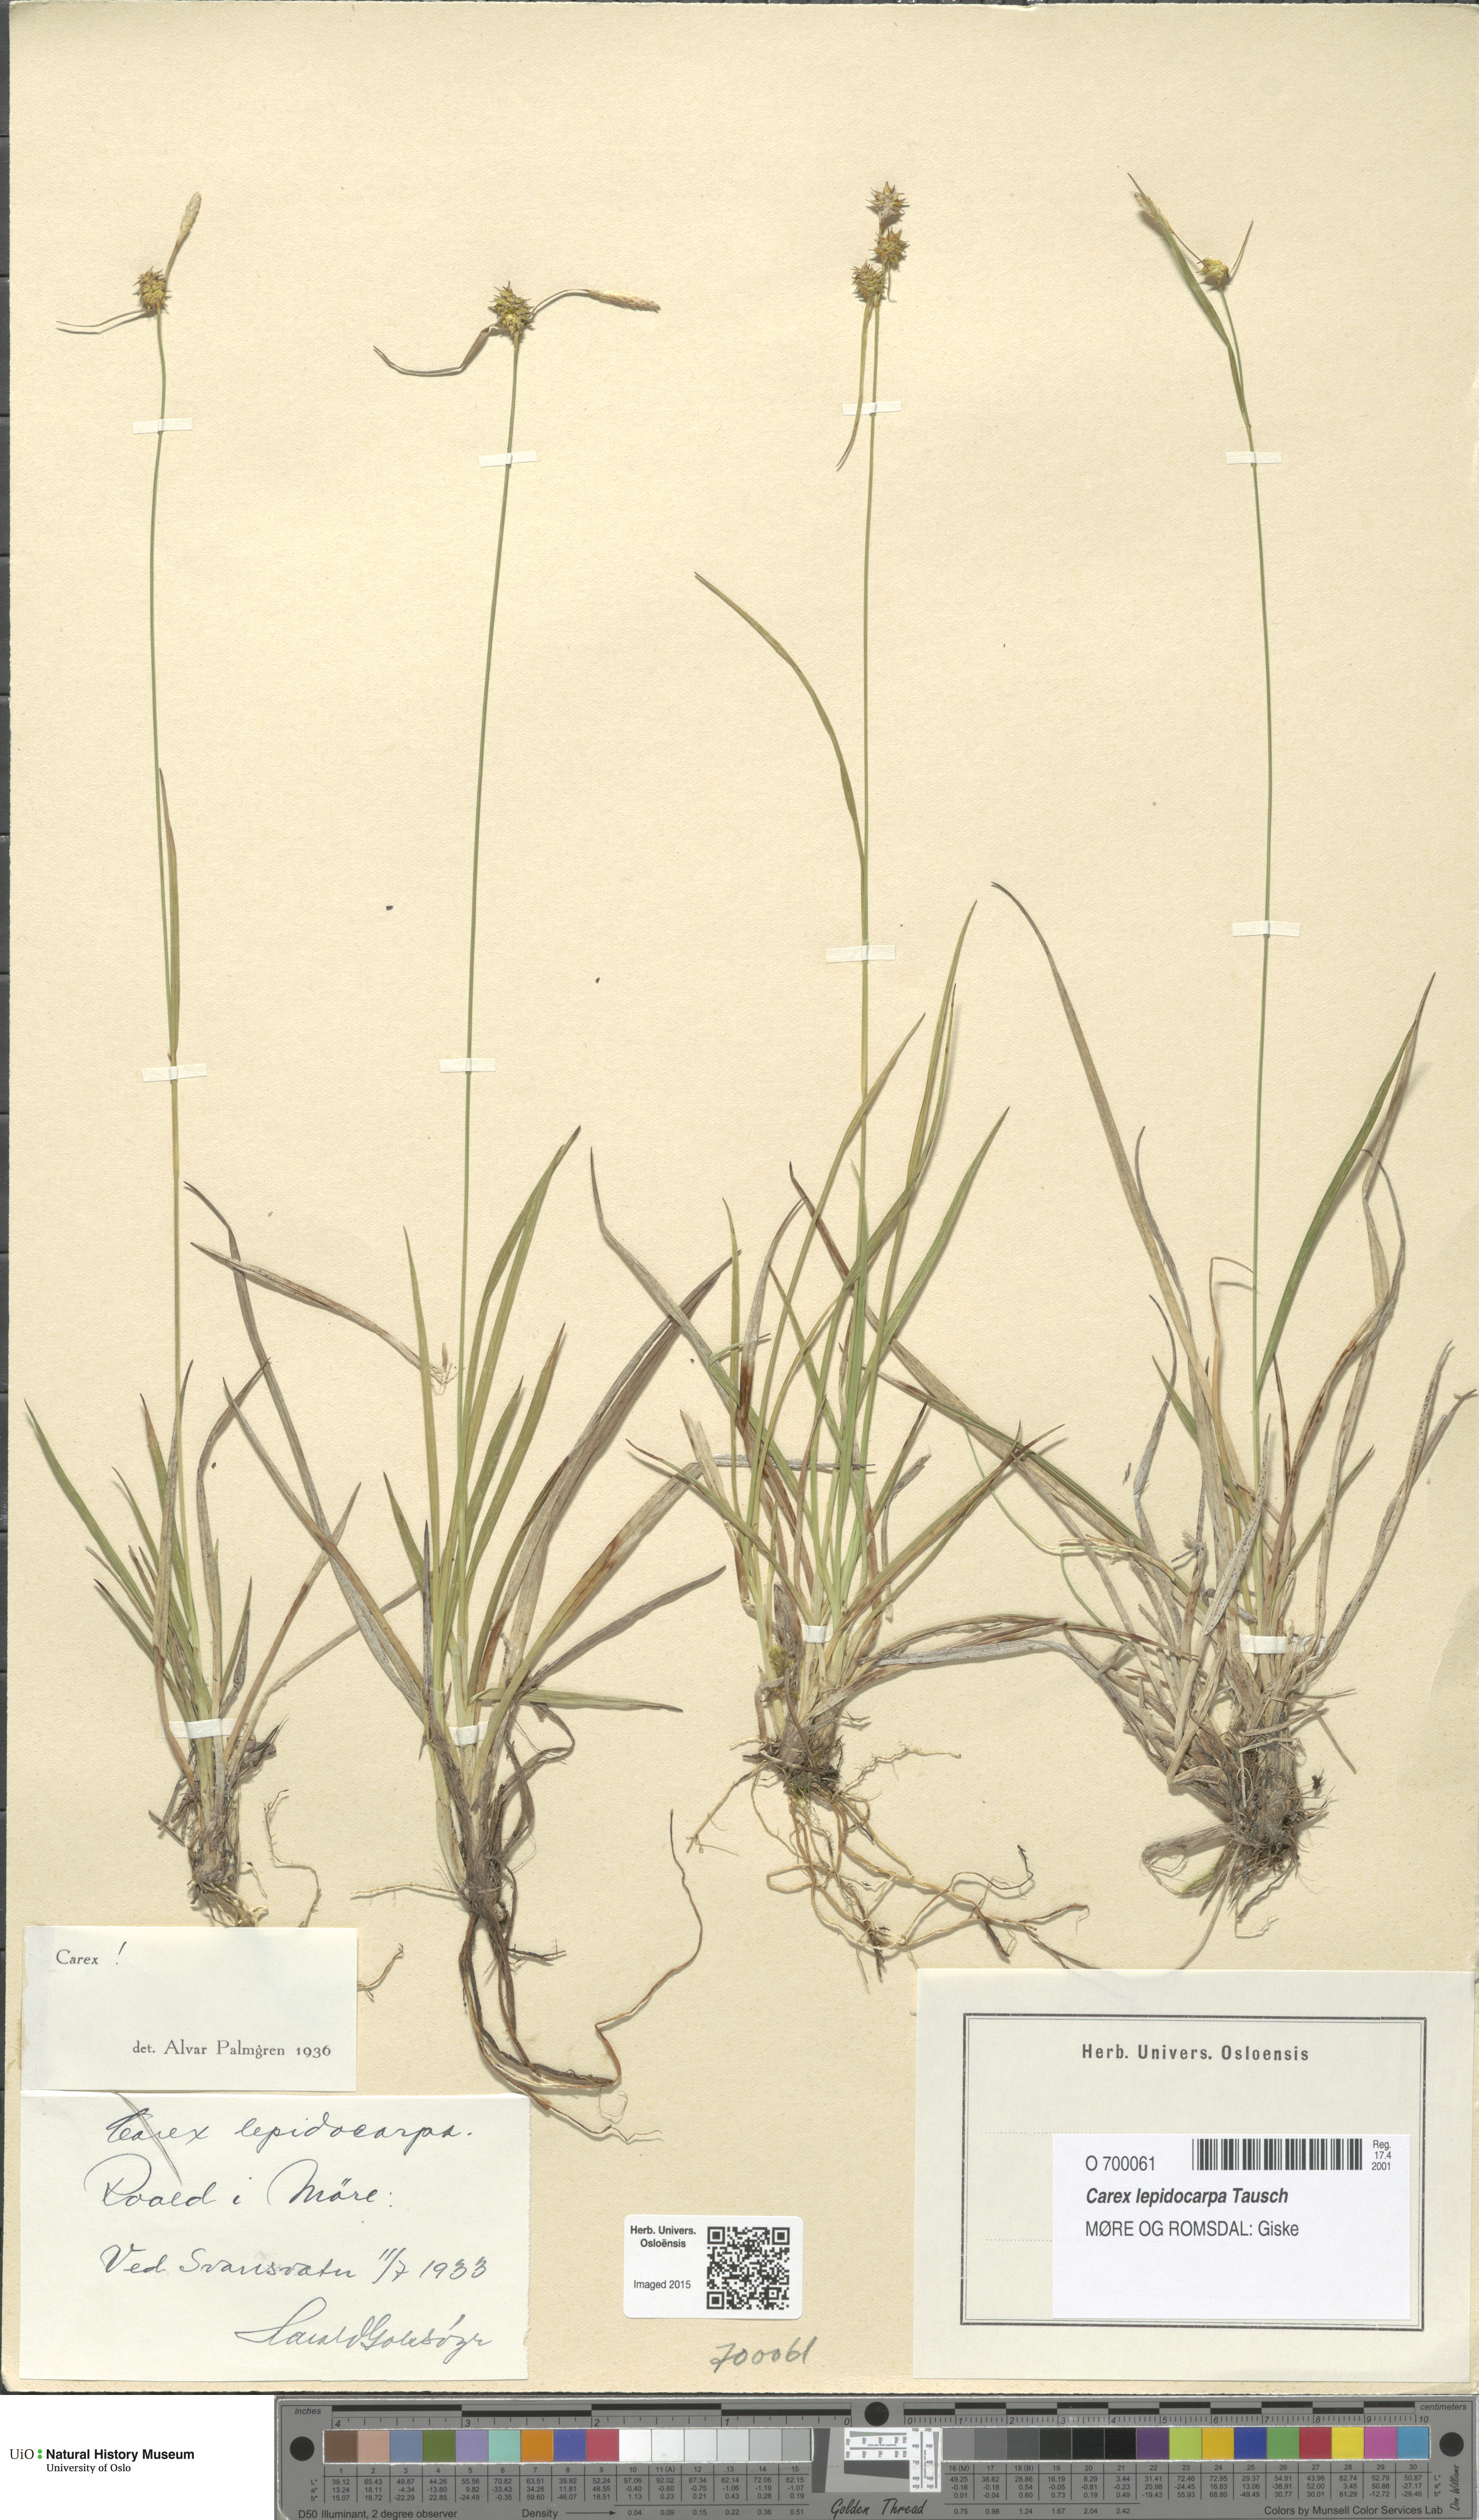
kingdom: Plantae
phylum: Tracheophyta
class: Liliopsida
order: Poales
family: Cyperaceae
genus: Carex
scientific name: Carex lepidocarpa
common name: Long-stalked yellow-sedge
